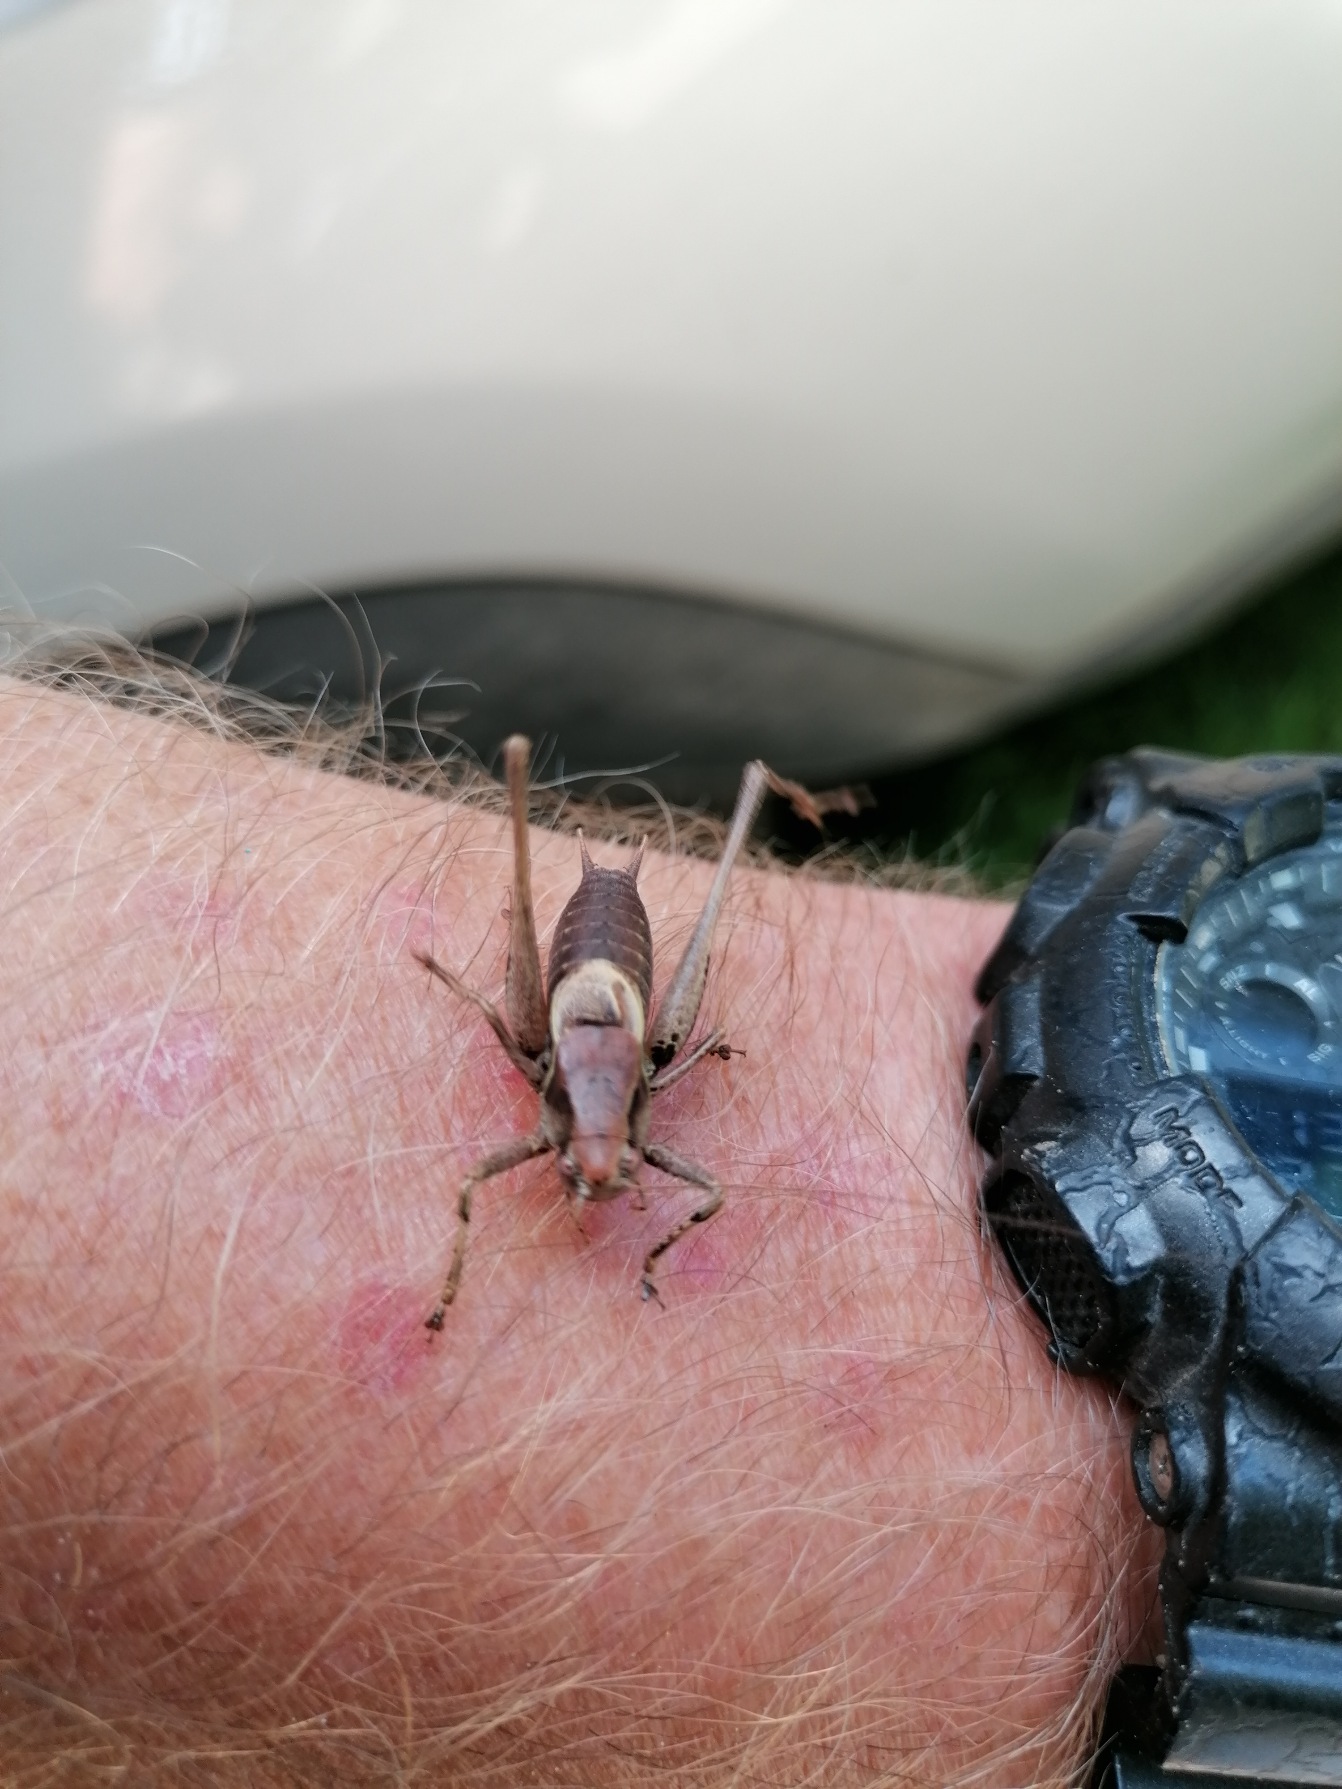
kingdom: Animalia
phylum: Arthropoda
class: Insecta
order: Orthoptera
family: Tettigoniidae
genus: Pholidoptera
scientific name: Pholidoptera griseoaptera
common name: Buskgræshoppe
